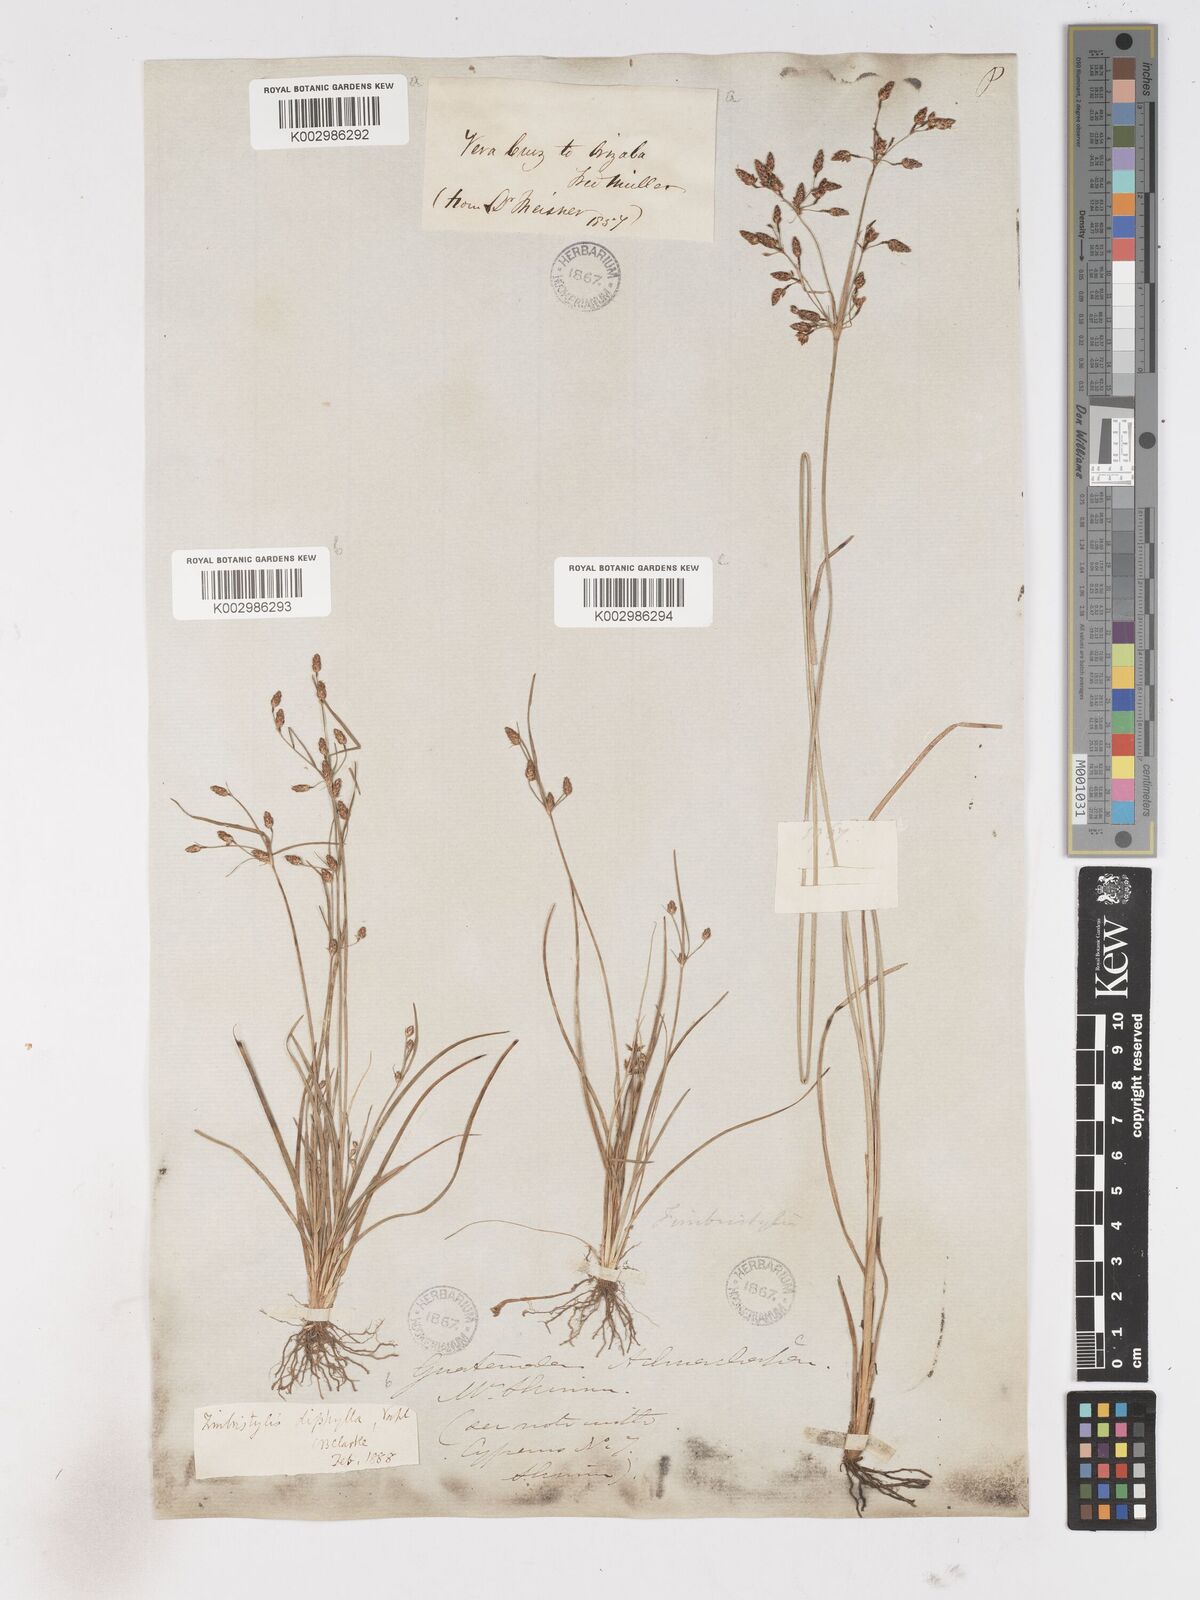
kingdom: Plantae
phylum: Tracheophyta
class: Liliopsida
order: Poales
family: Cyperaceae
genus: Fimbristylis
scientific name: Fimbristylis dichotoma
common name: Forked fimbry
